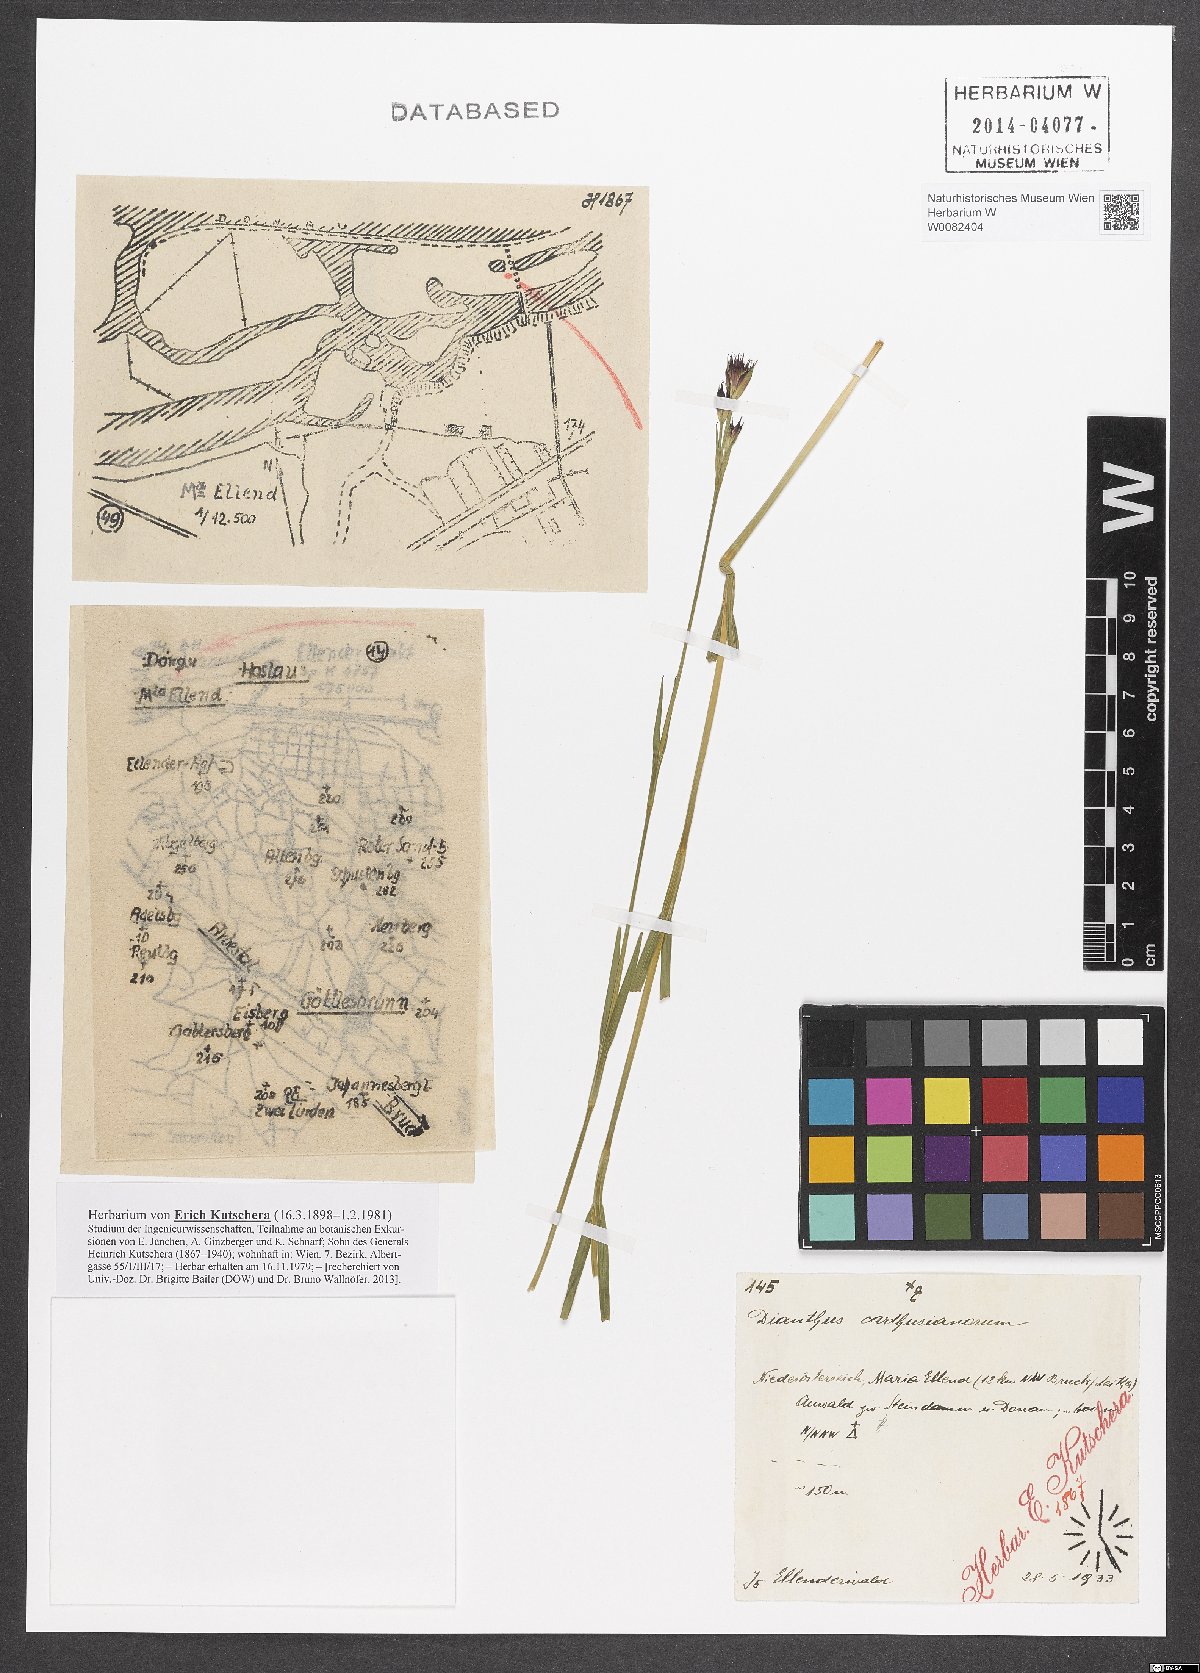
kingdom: Plantae
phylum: Tracheophyta
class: Magnoliopsida
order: Caryophyllales
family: Caryophyllaceae
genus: Dianthus
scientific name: Dianthus carthusianorum
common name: Carthusian pink
